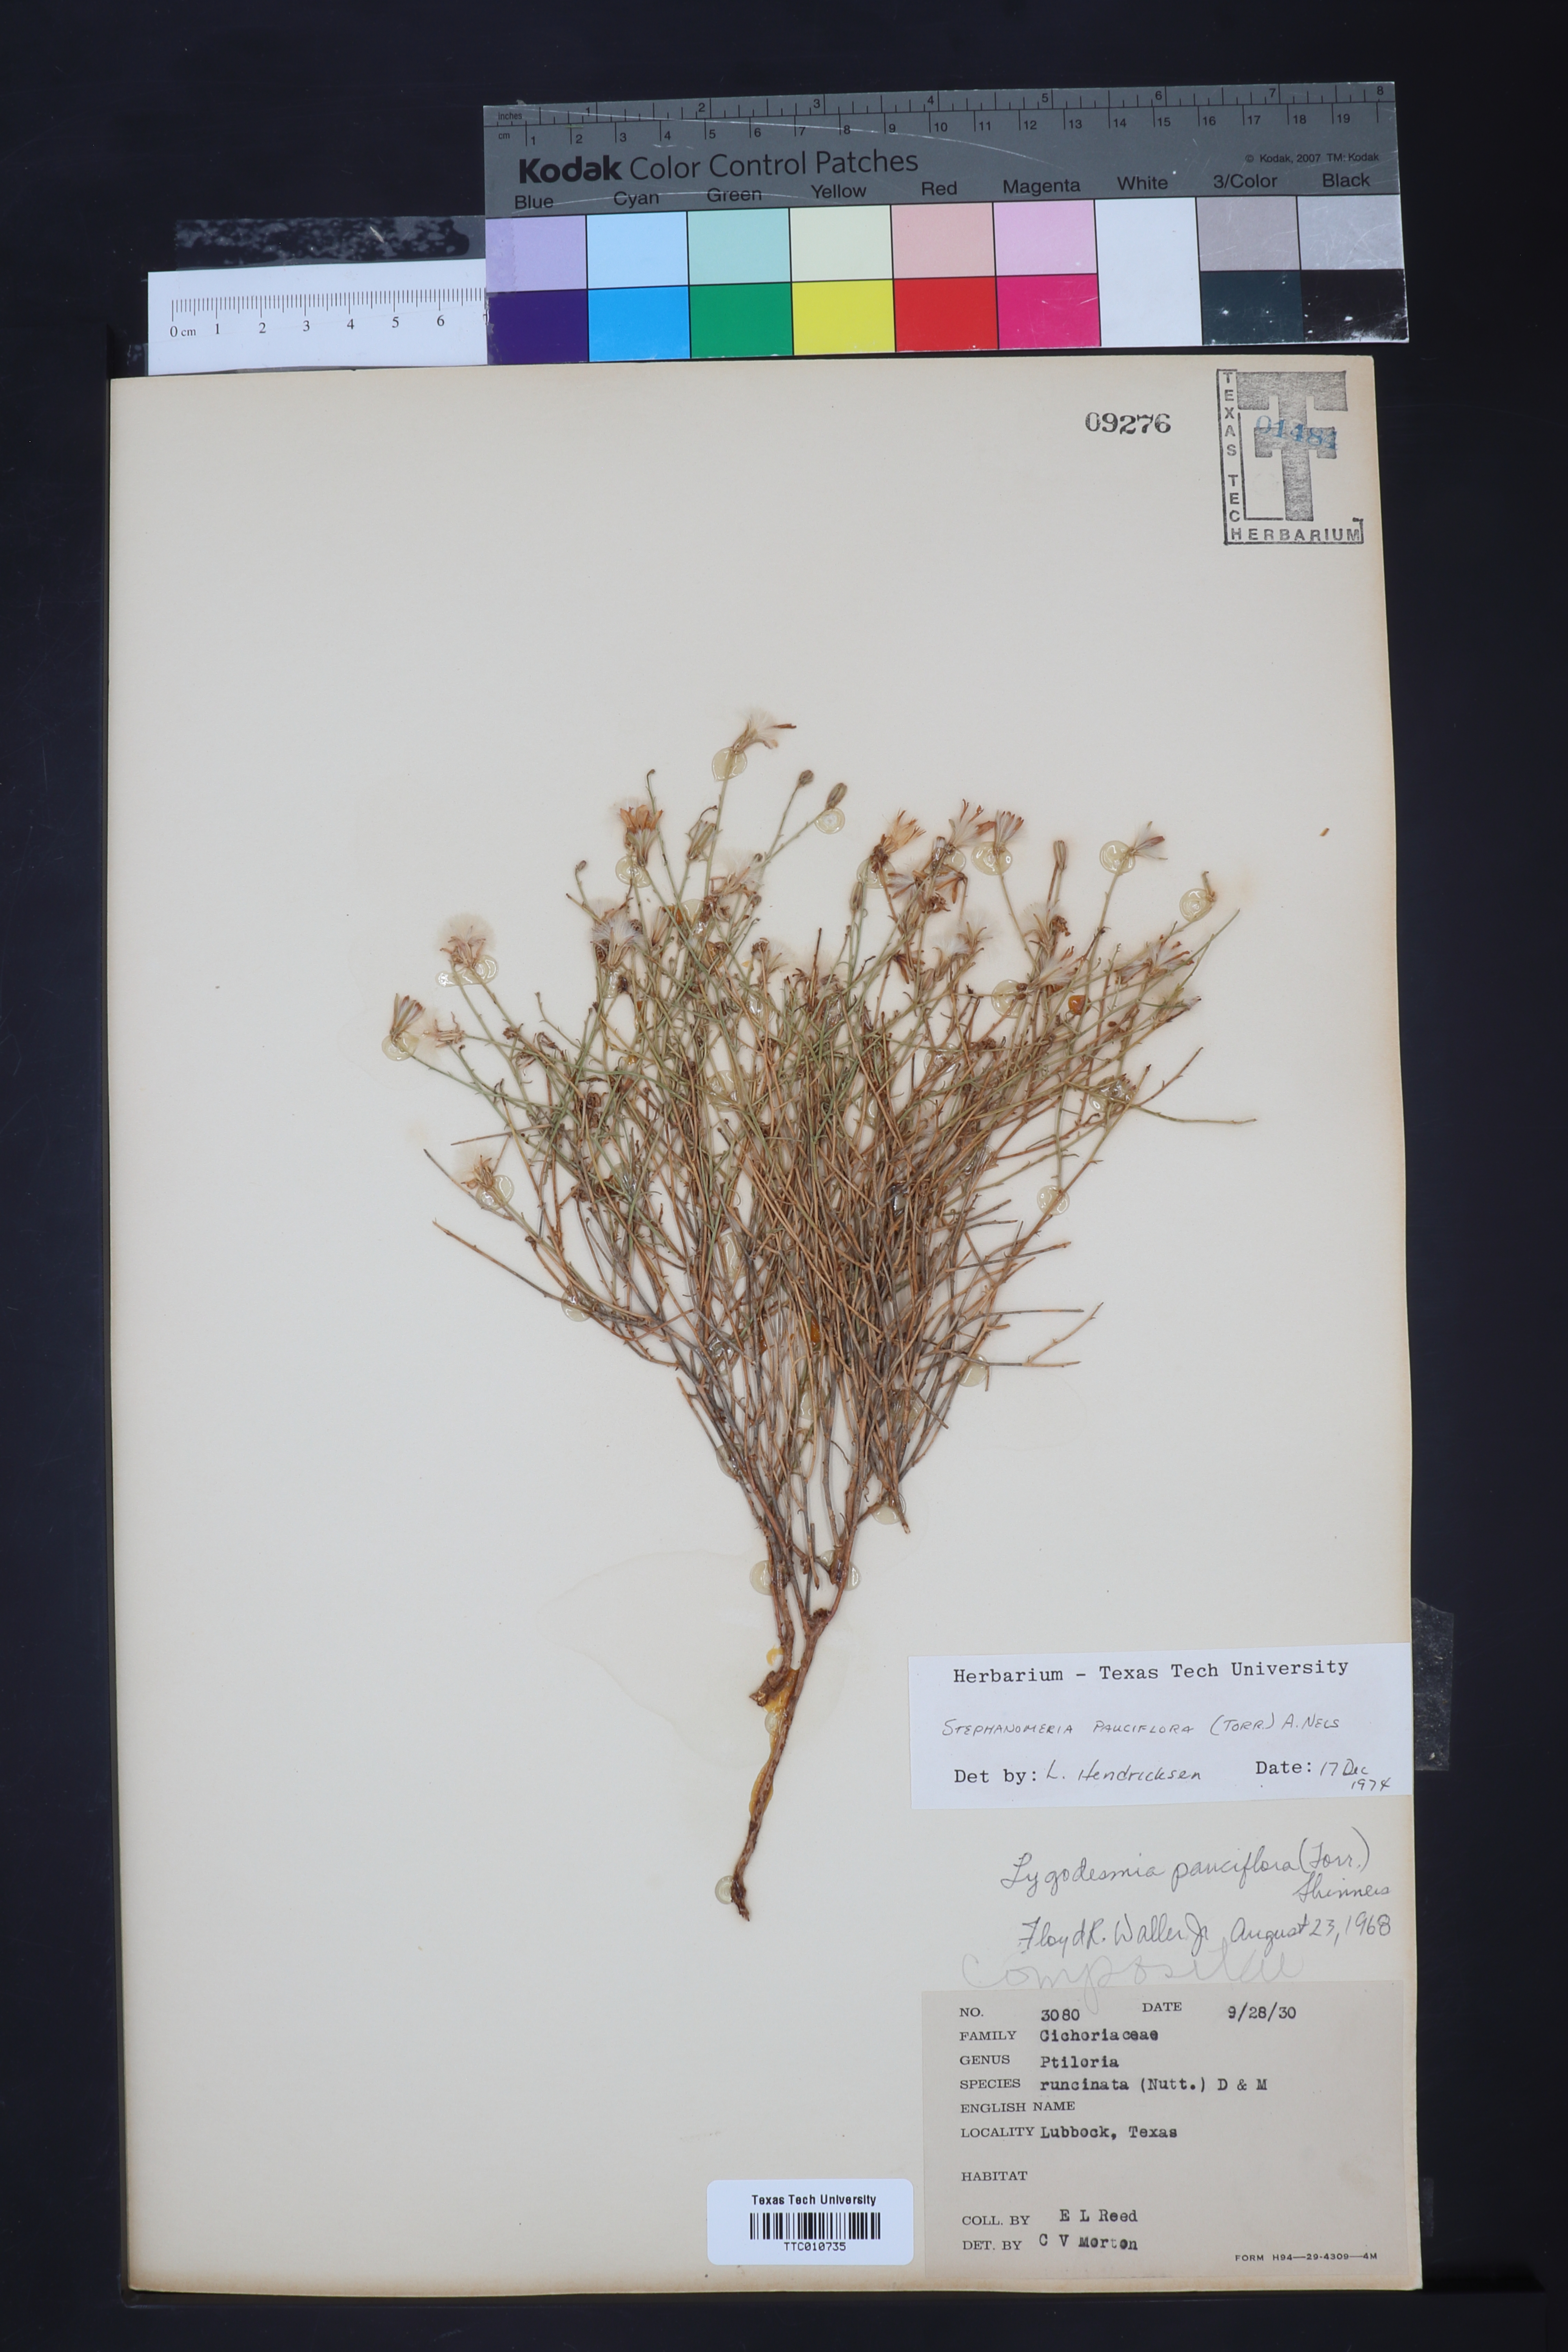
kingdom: Plantae
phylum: Tracheophyta
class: Magnoliopsida
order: Asterales
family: Asteraceae
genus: Stephanomeria
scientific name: Stephanomeria pauciflora
